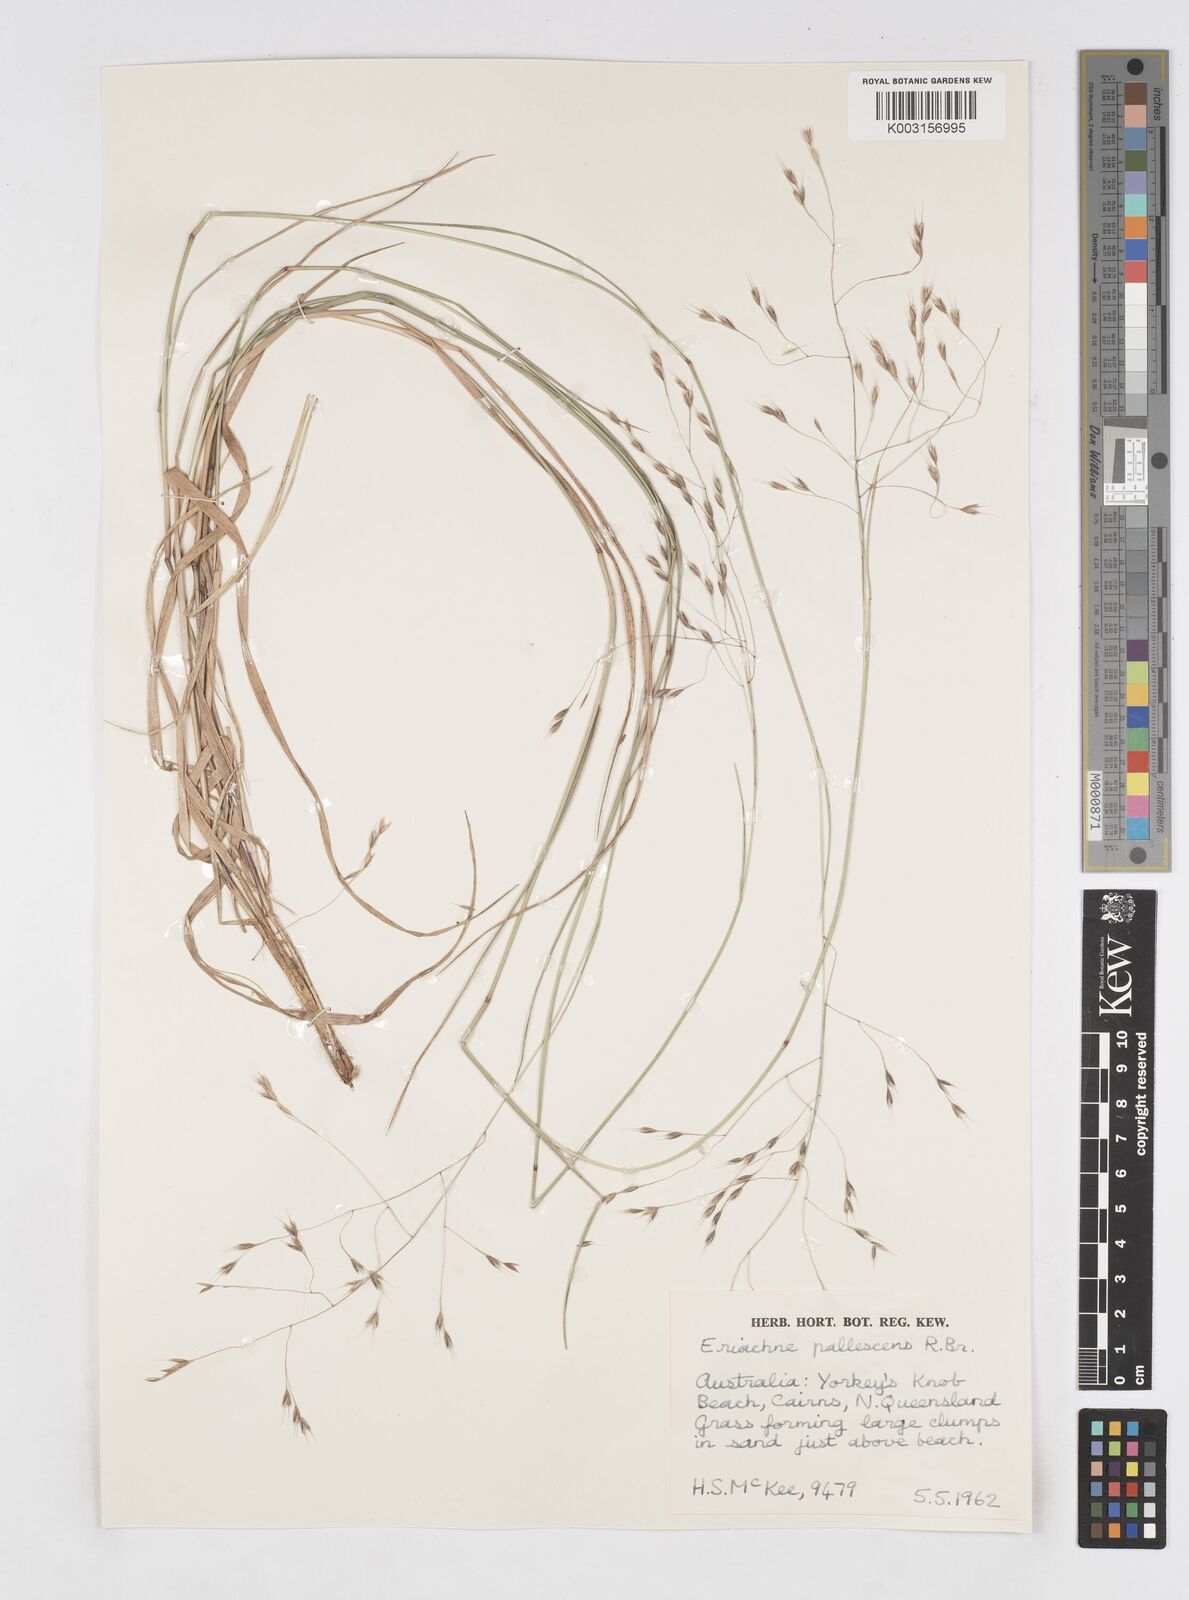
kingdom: Plantae
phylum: Tracheophyta
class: Liliopsida
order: Poales
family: Poaceae
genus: Eriachne
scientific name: Eriachne pallescens
